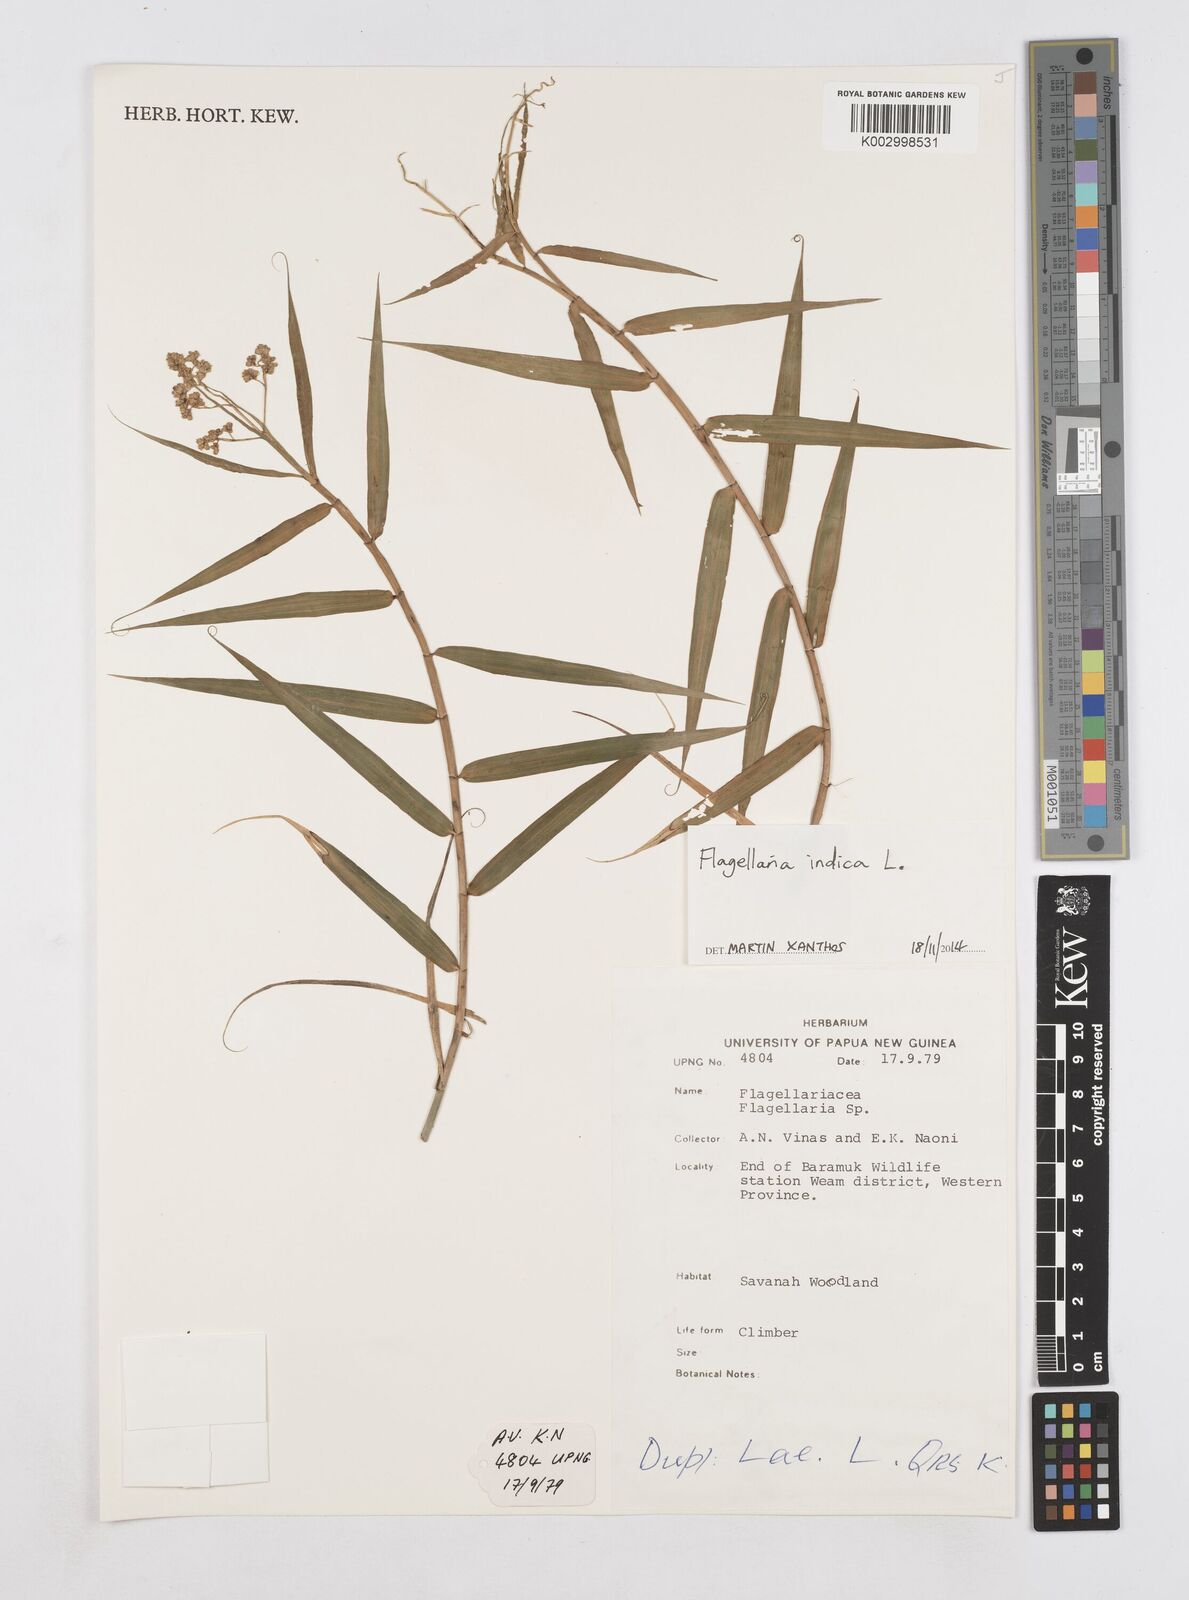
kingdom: Plantae
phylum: Tracheophyta
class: Liliopsida
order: Poales
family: Flagellariaceae
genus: Flagellaria
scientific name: Flagellaria indica
